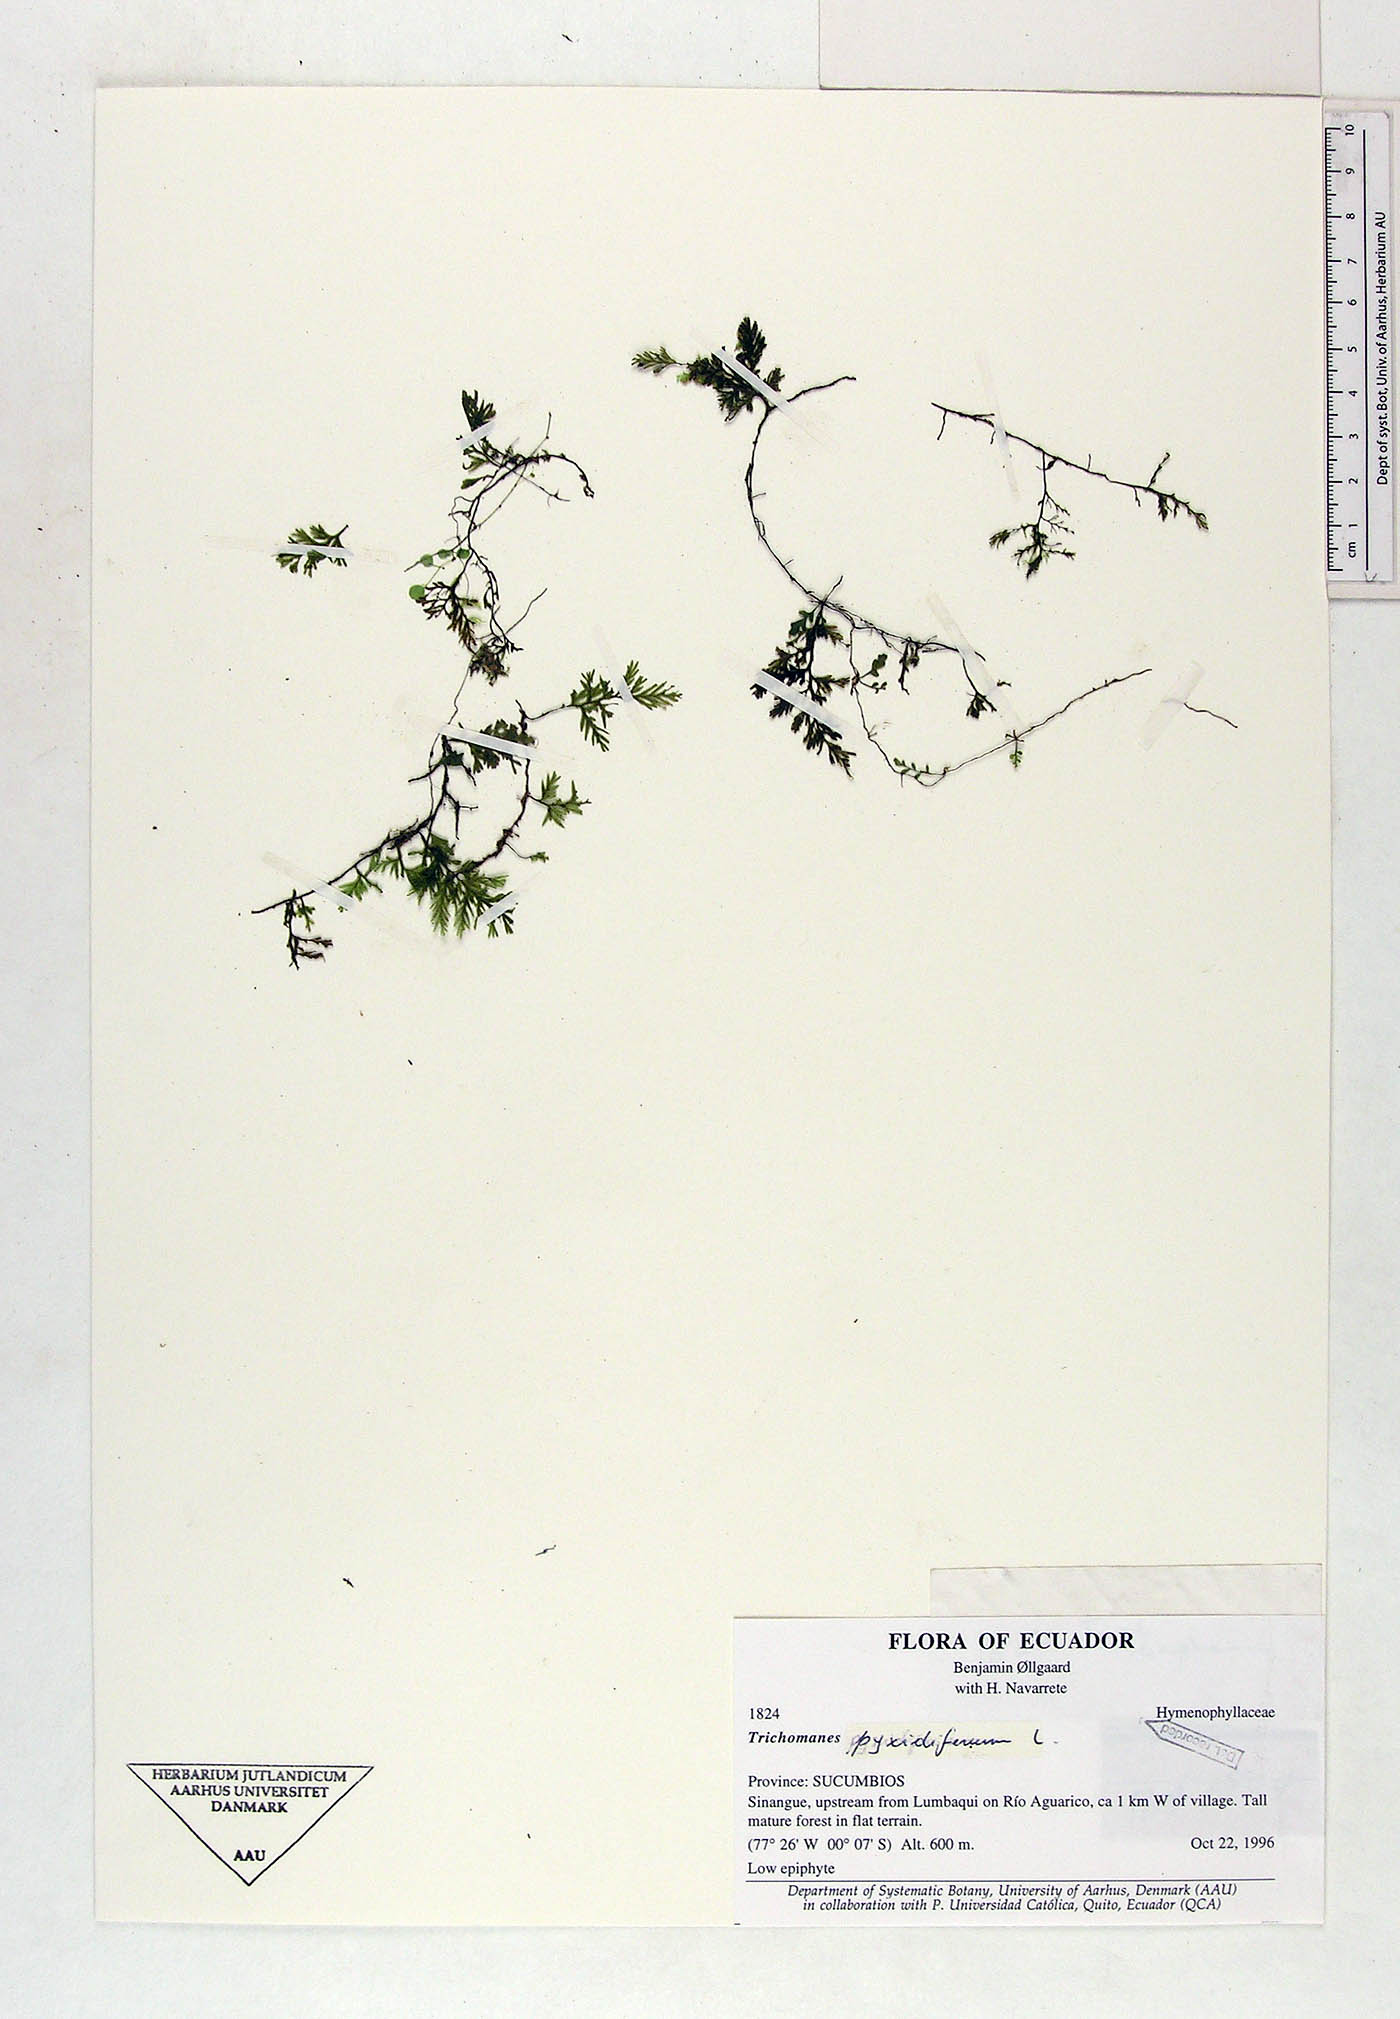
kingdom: Plantae
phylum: Tracheophyta
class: Polypodiopsida
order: Hymenophyllales
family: Hymenophyllaceae
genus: Polyphlebium
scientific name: Polyphlebium pyxidiferum
